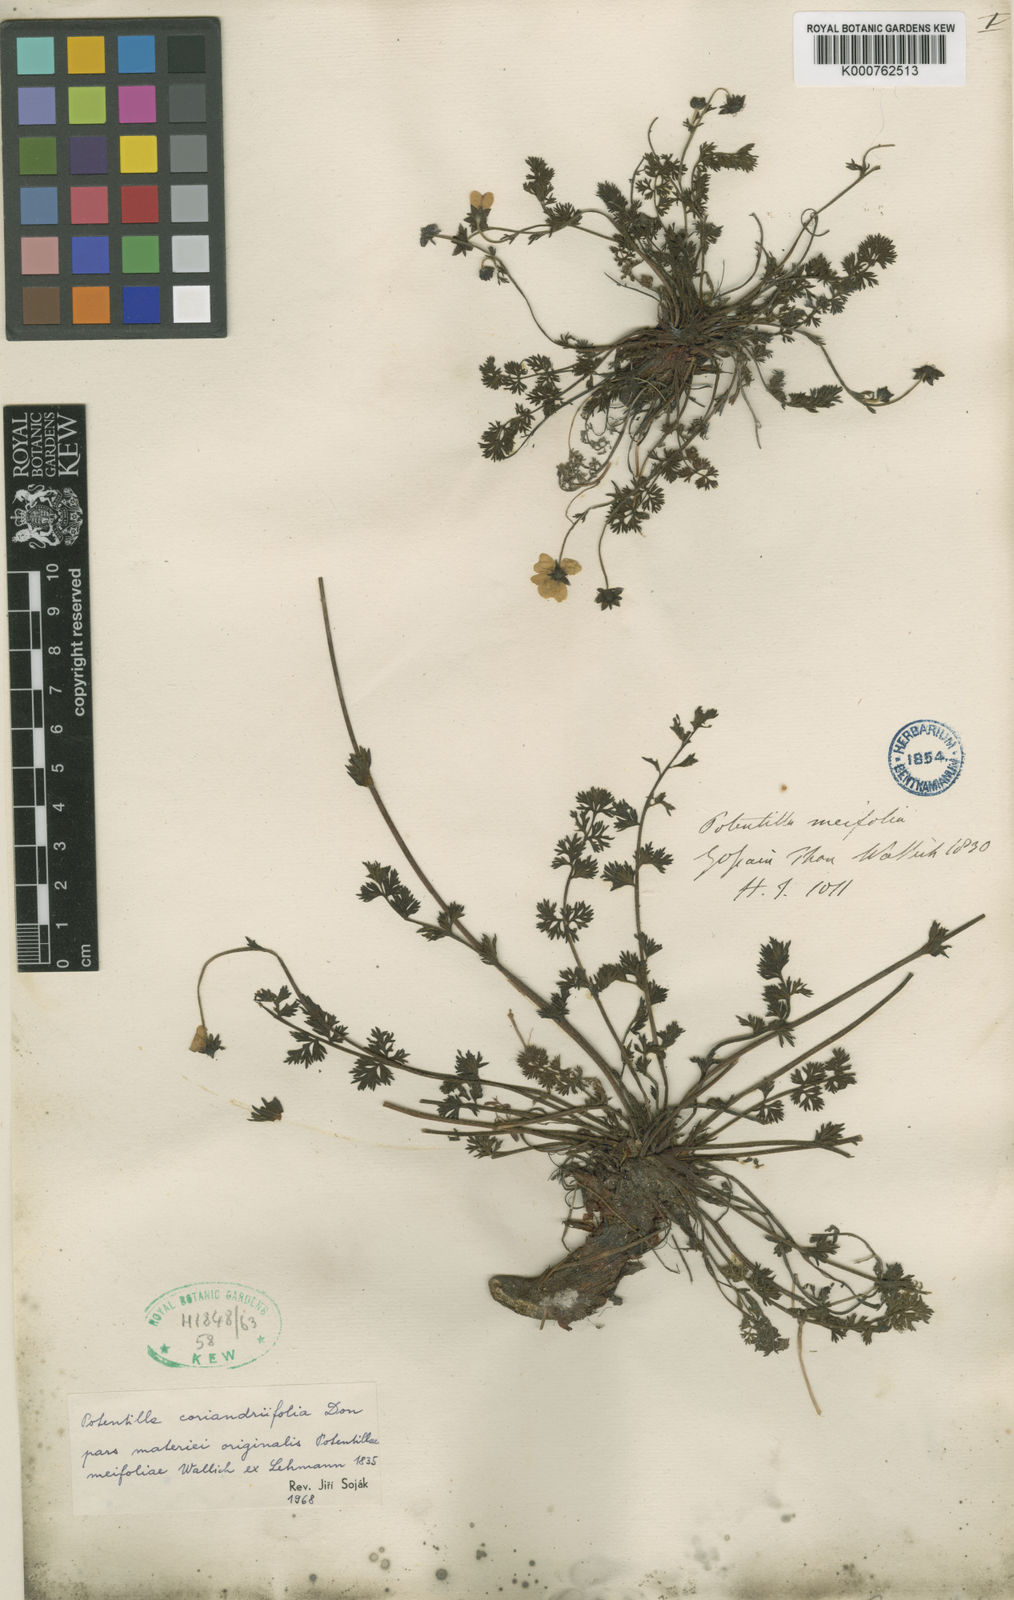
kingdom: Plantae
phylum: Tracheophyta
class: Magnoliopsida
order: Rosales
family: Rosaceae
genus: Potentilla
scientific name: Potentilla coriandrifolia
